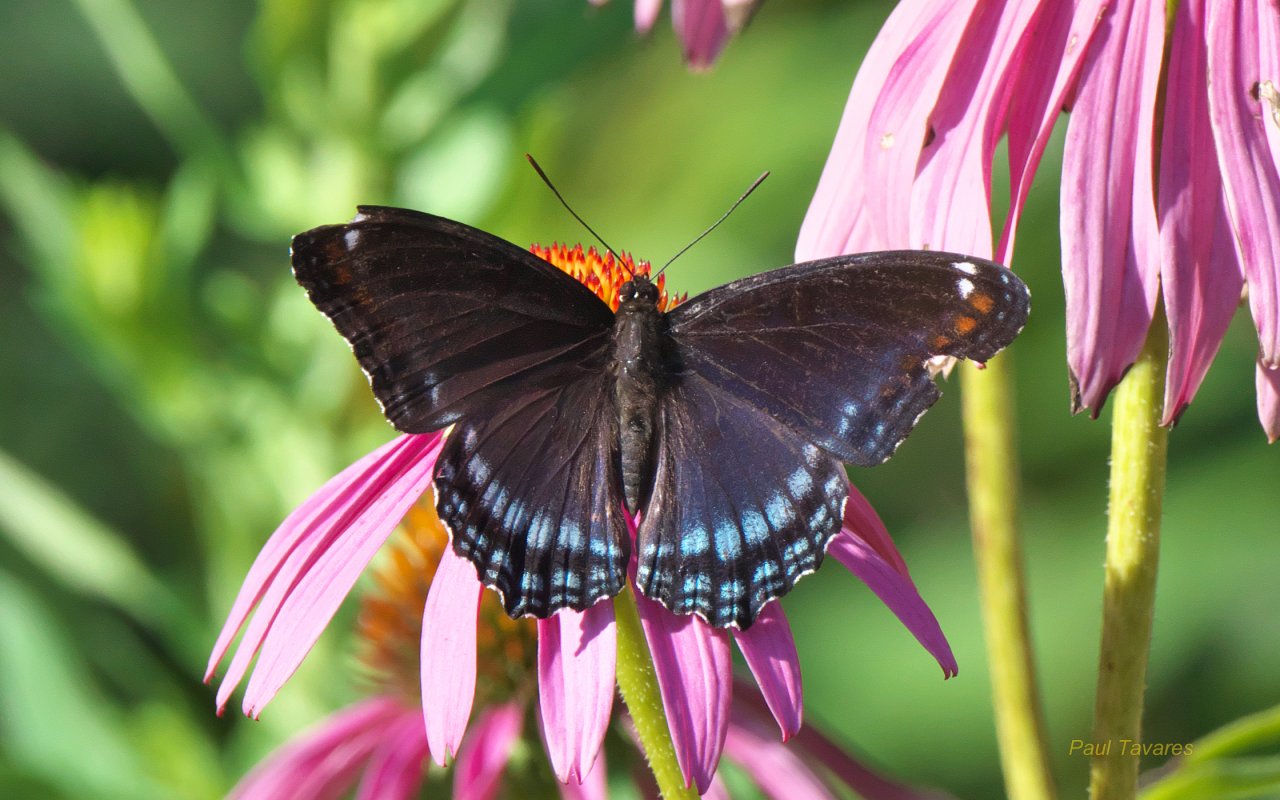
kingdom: Animalia
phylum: Arthropoda
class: Insecta
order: Lepidoptera
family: Nymphalidae
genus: Limenitis
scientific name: Limenitis astyanax
